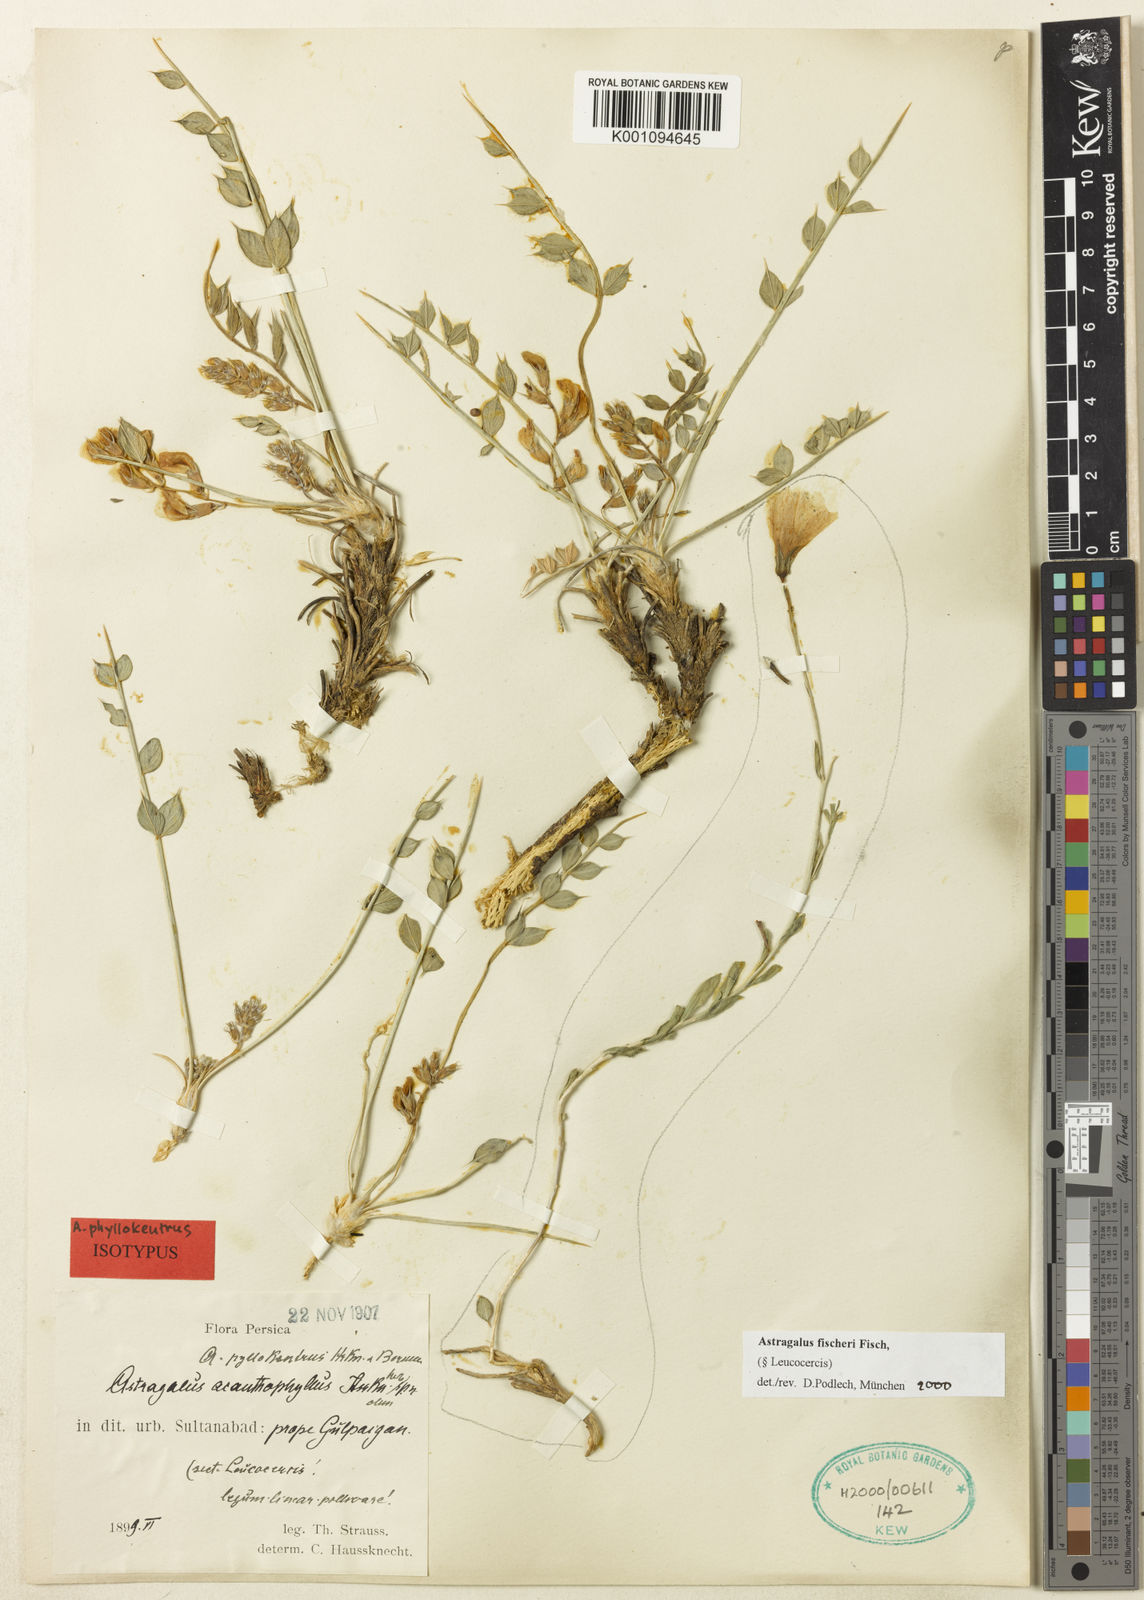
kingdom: Plantae
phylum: Tracheophyta
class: Magnoliopsida
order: Fabales
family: Fabaceae
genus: Astragalus
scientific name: Astragalus
